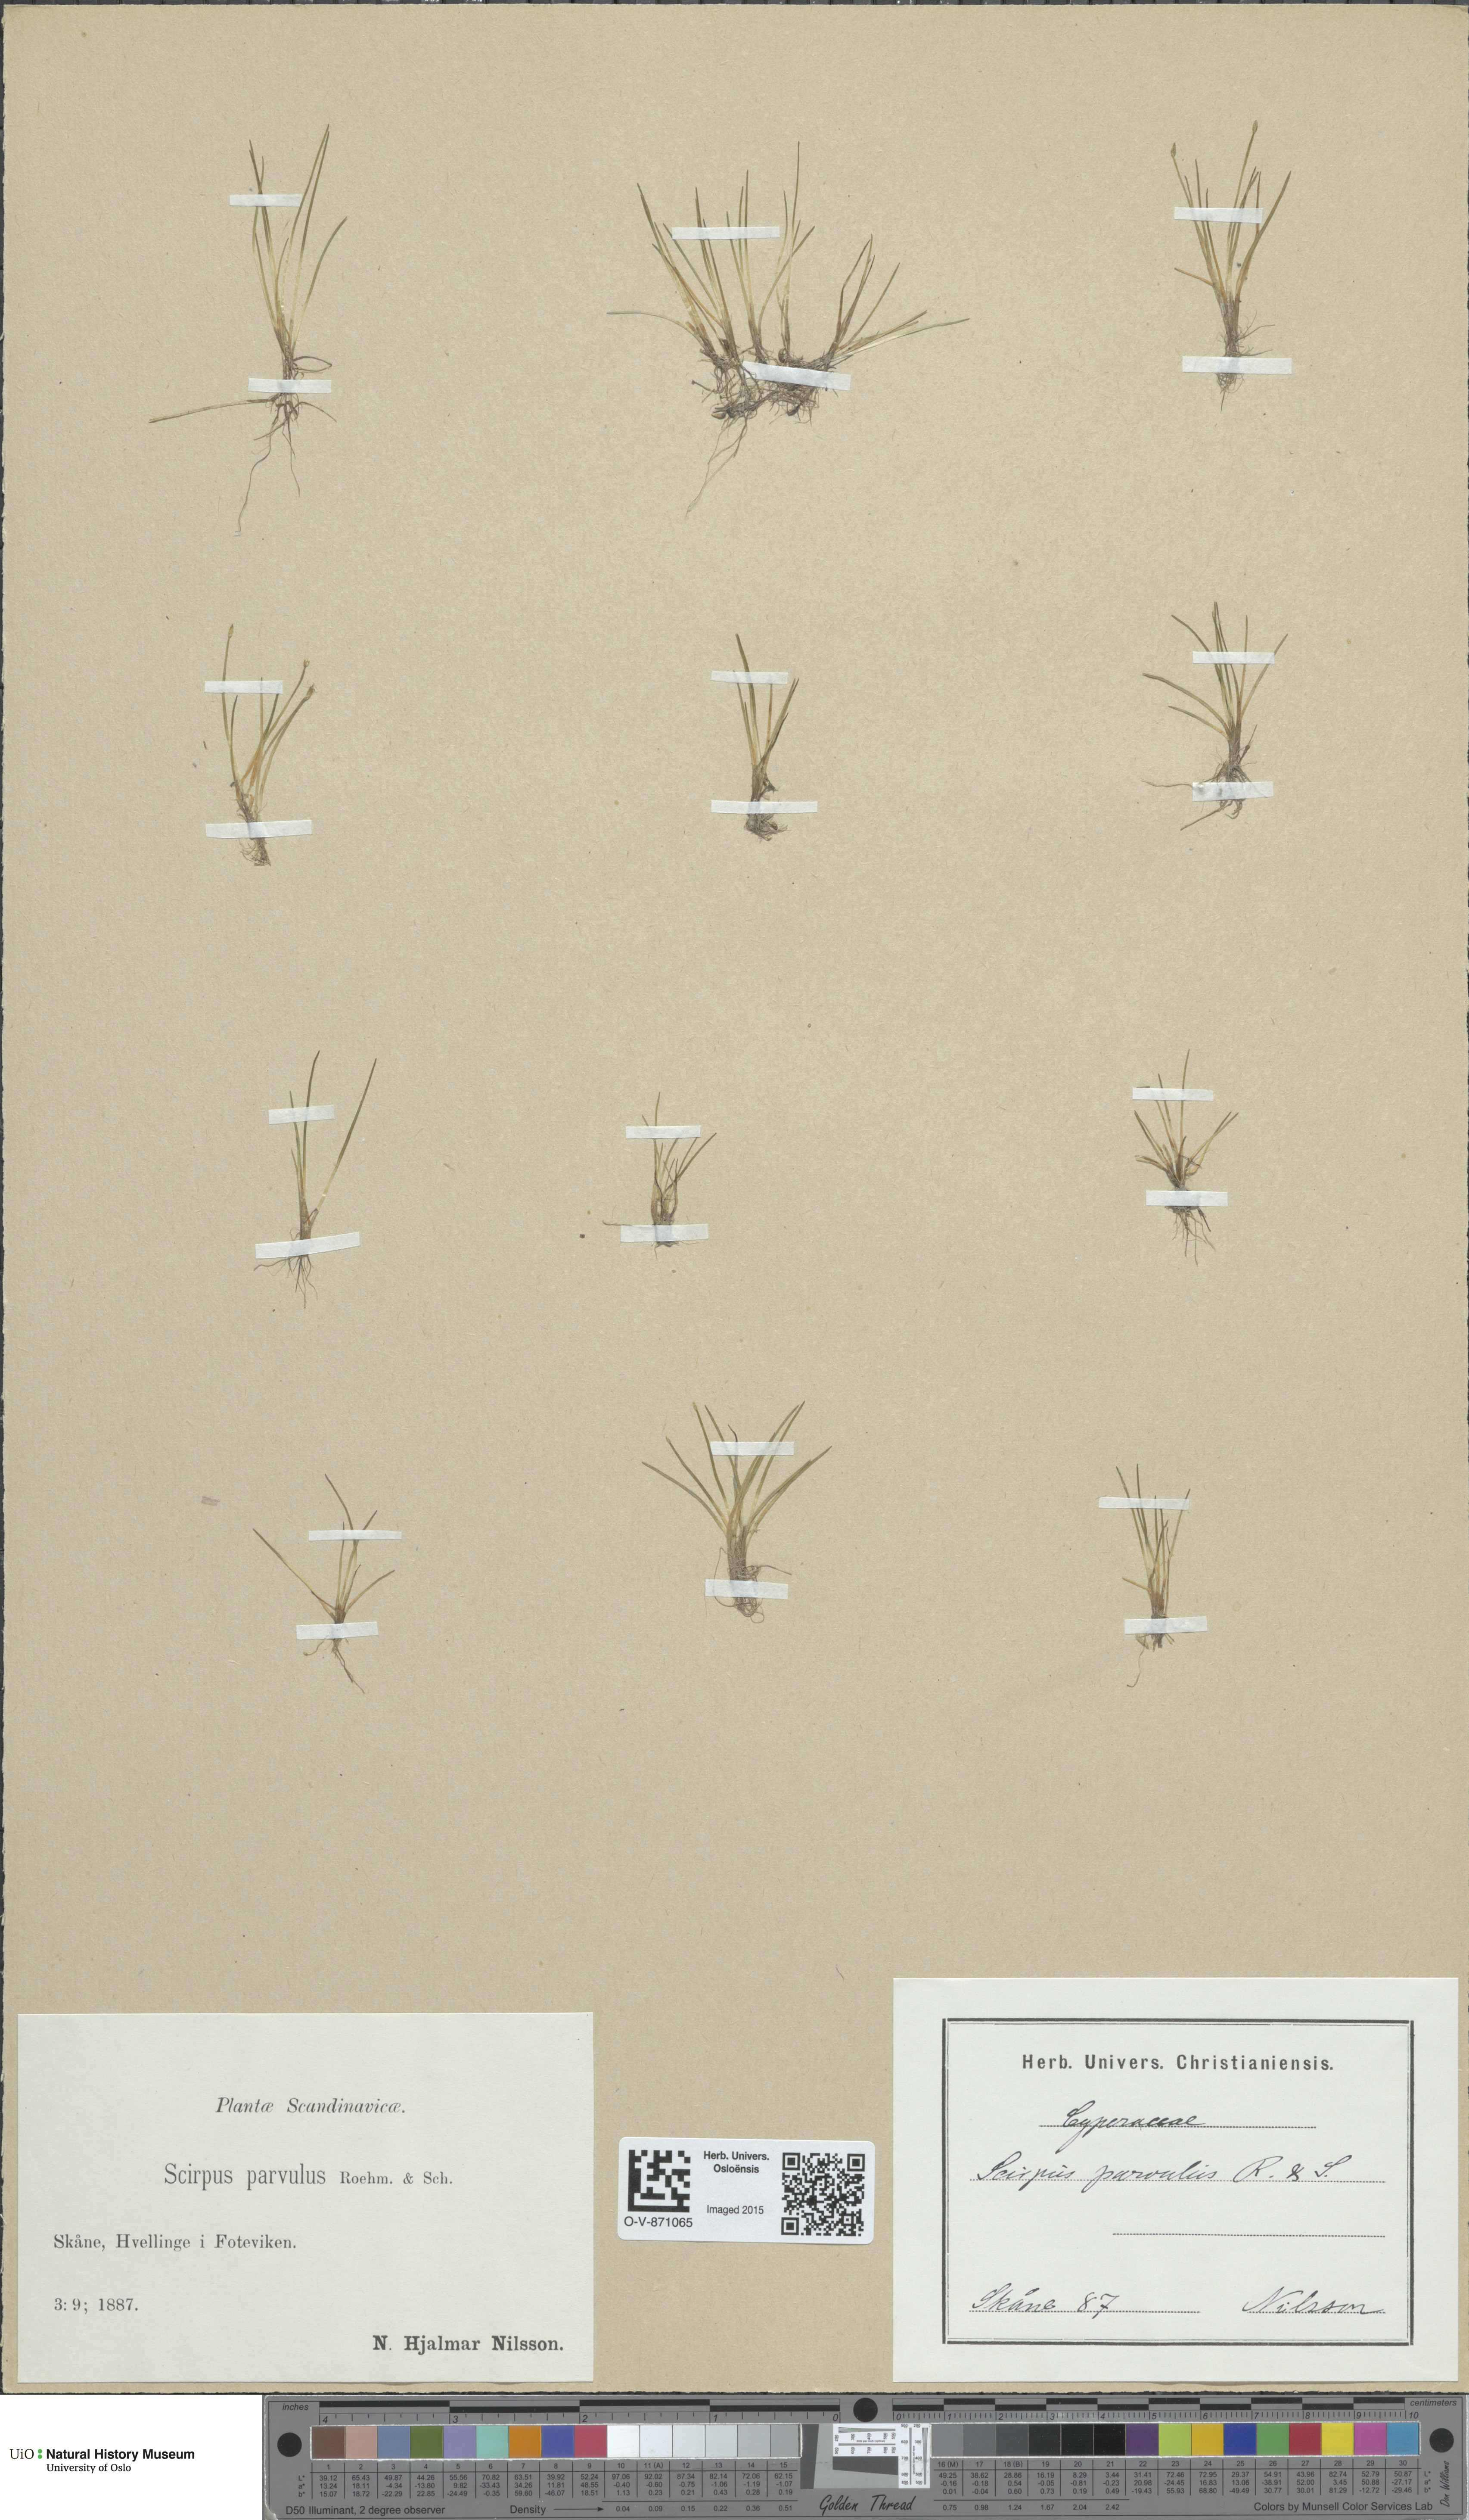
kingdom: Plantae
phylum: Tracheophyta
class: Liliopsida
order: Poales
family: Cyperaceae
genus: Eleocharis
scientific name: Eleocharis parvula
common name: Dwarf spike-rush
